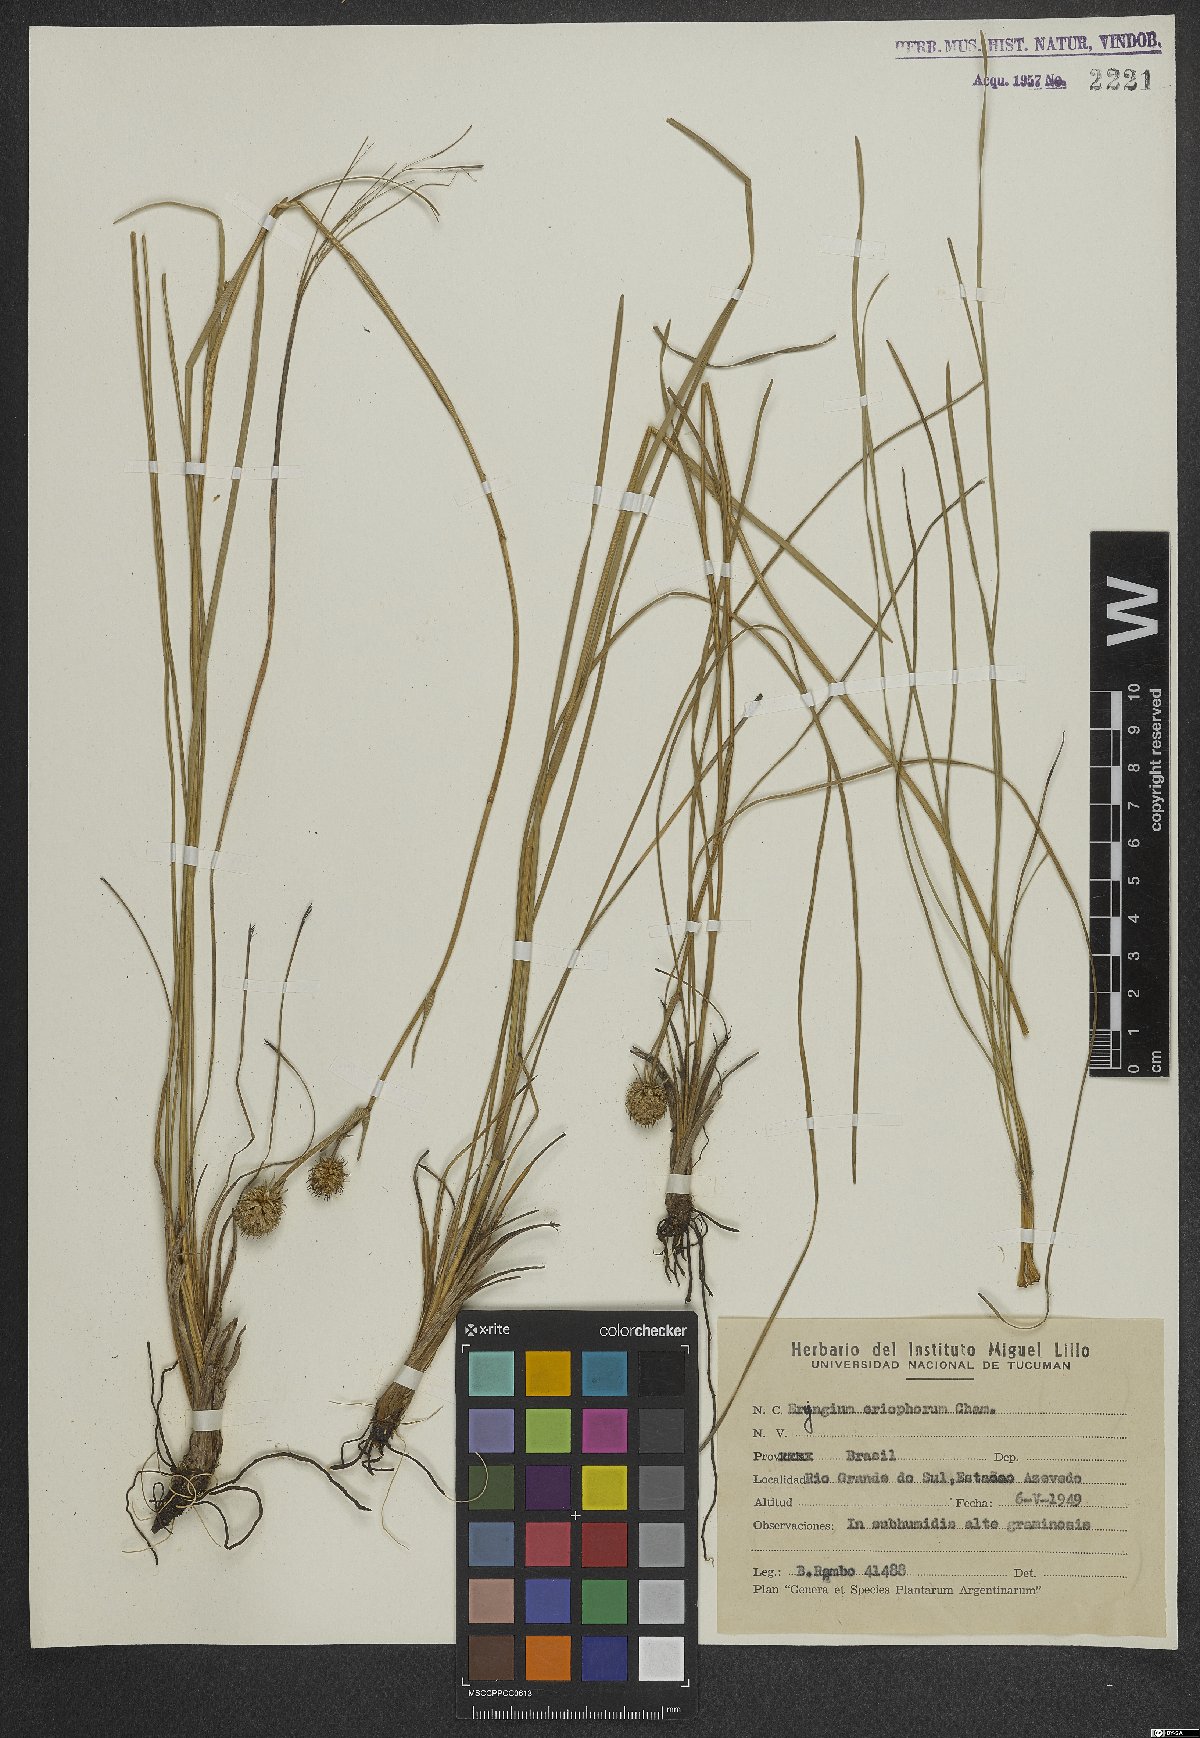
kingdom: Plantae
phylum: Tracheophyta
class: Magnoliopsida
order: Apiales
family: Apiaceae
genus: Eryngium
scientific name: Eryngium eriophorum
